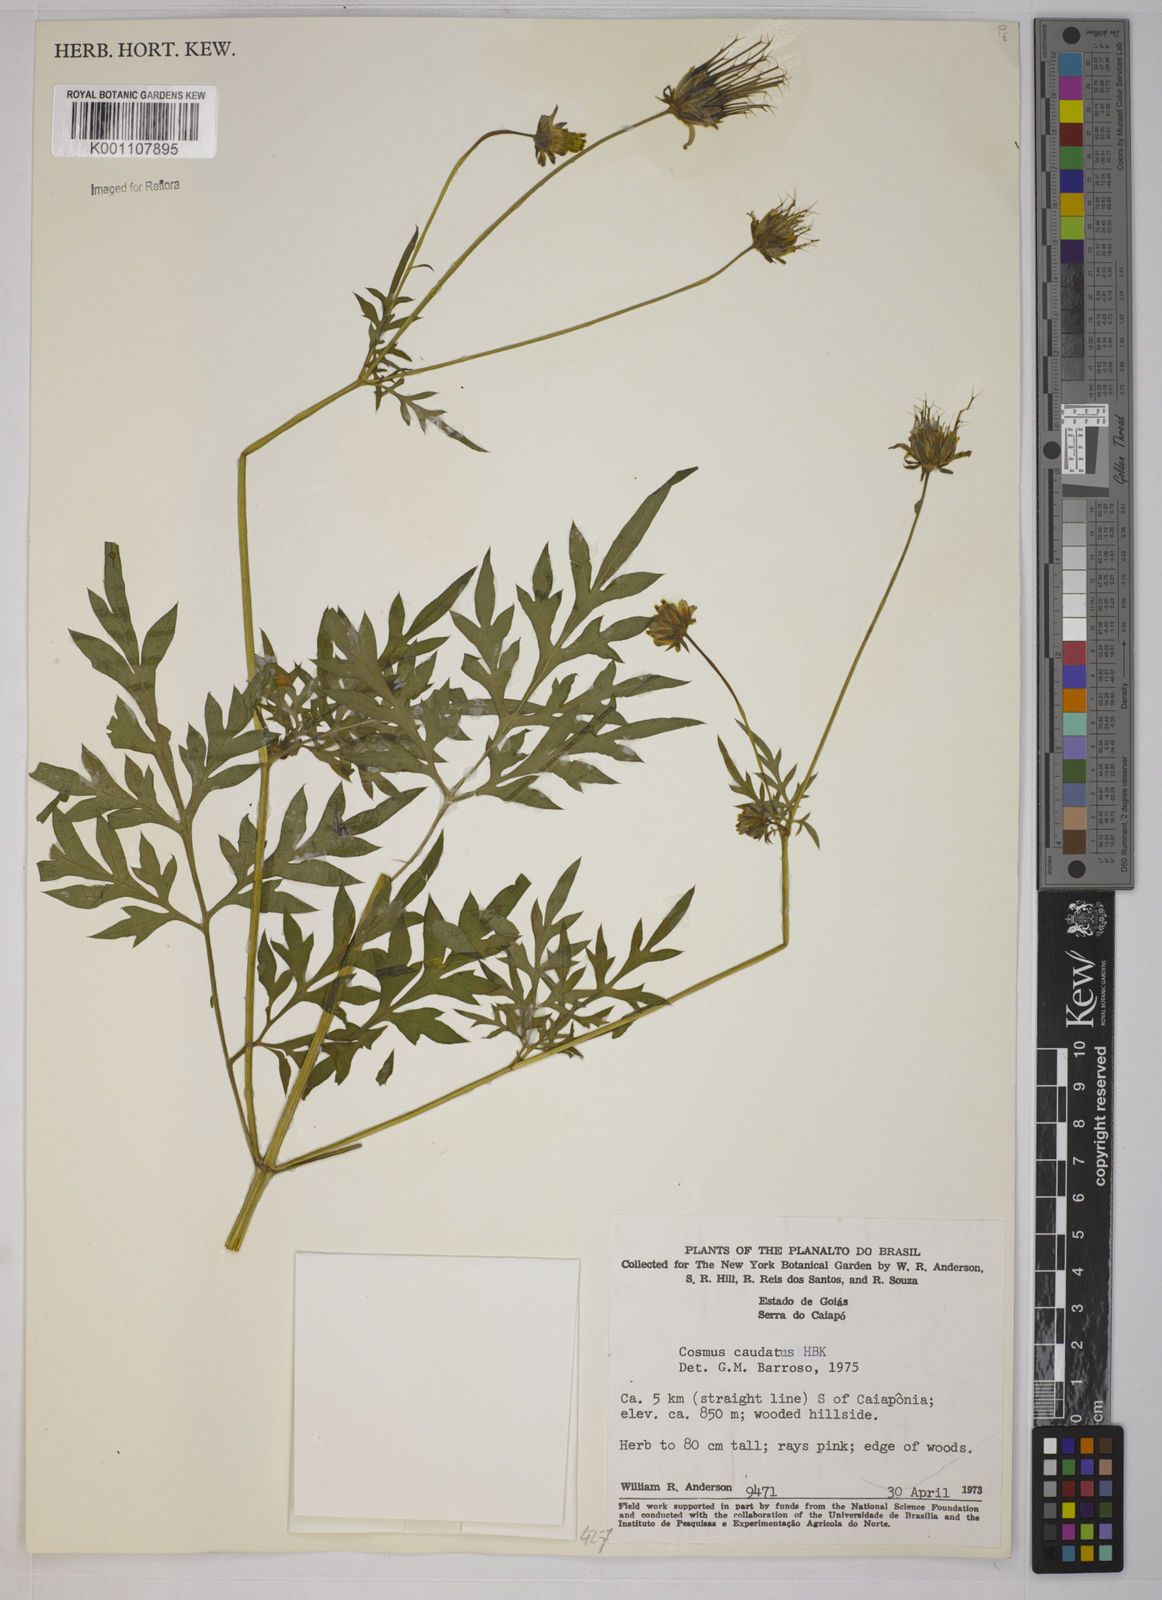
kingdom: Plantae
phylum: Tracheophyta
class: Magnoliopsida
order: Asterales
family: Asteraceae
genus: Cosmos
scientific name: Cosmos caudatus
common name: Wild cosmos
